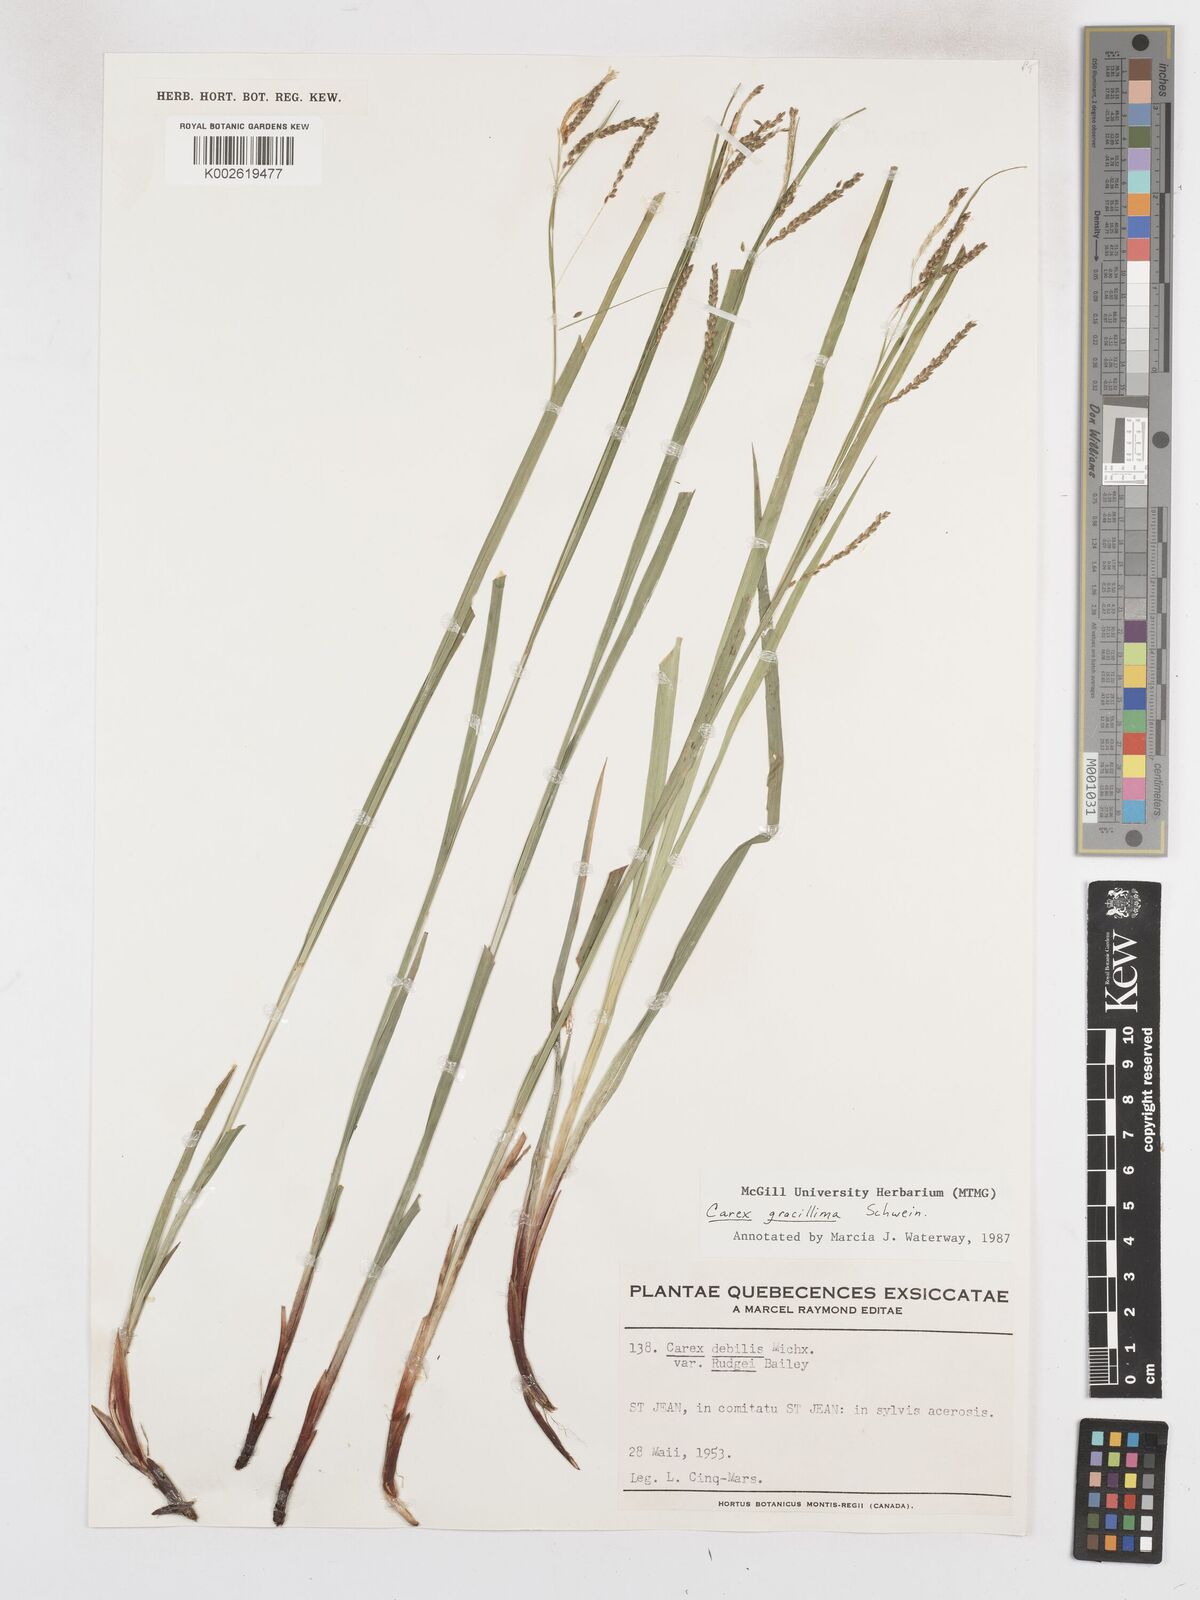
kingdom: Plantae
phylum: Tracheophyta
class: Liliopsida
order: Poales
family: Cyperaceae
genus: Carex
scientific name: Carex gracillima
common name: Graceful sedge
